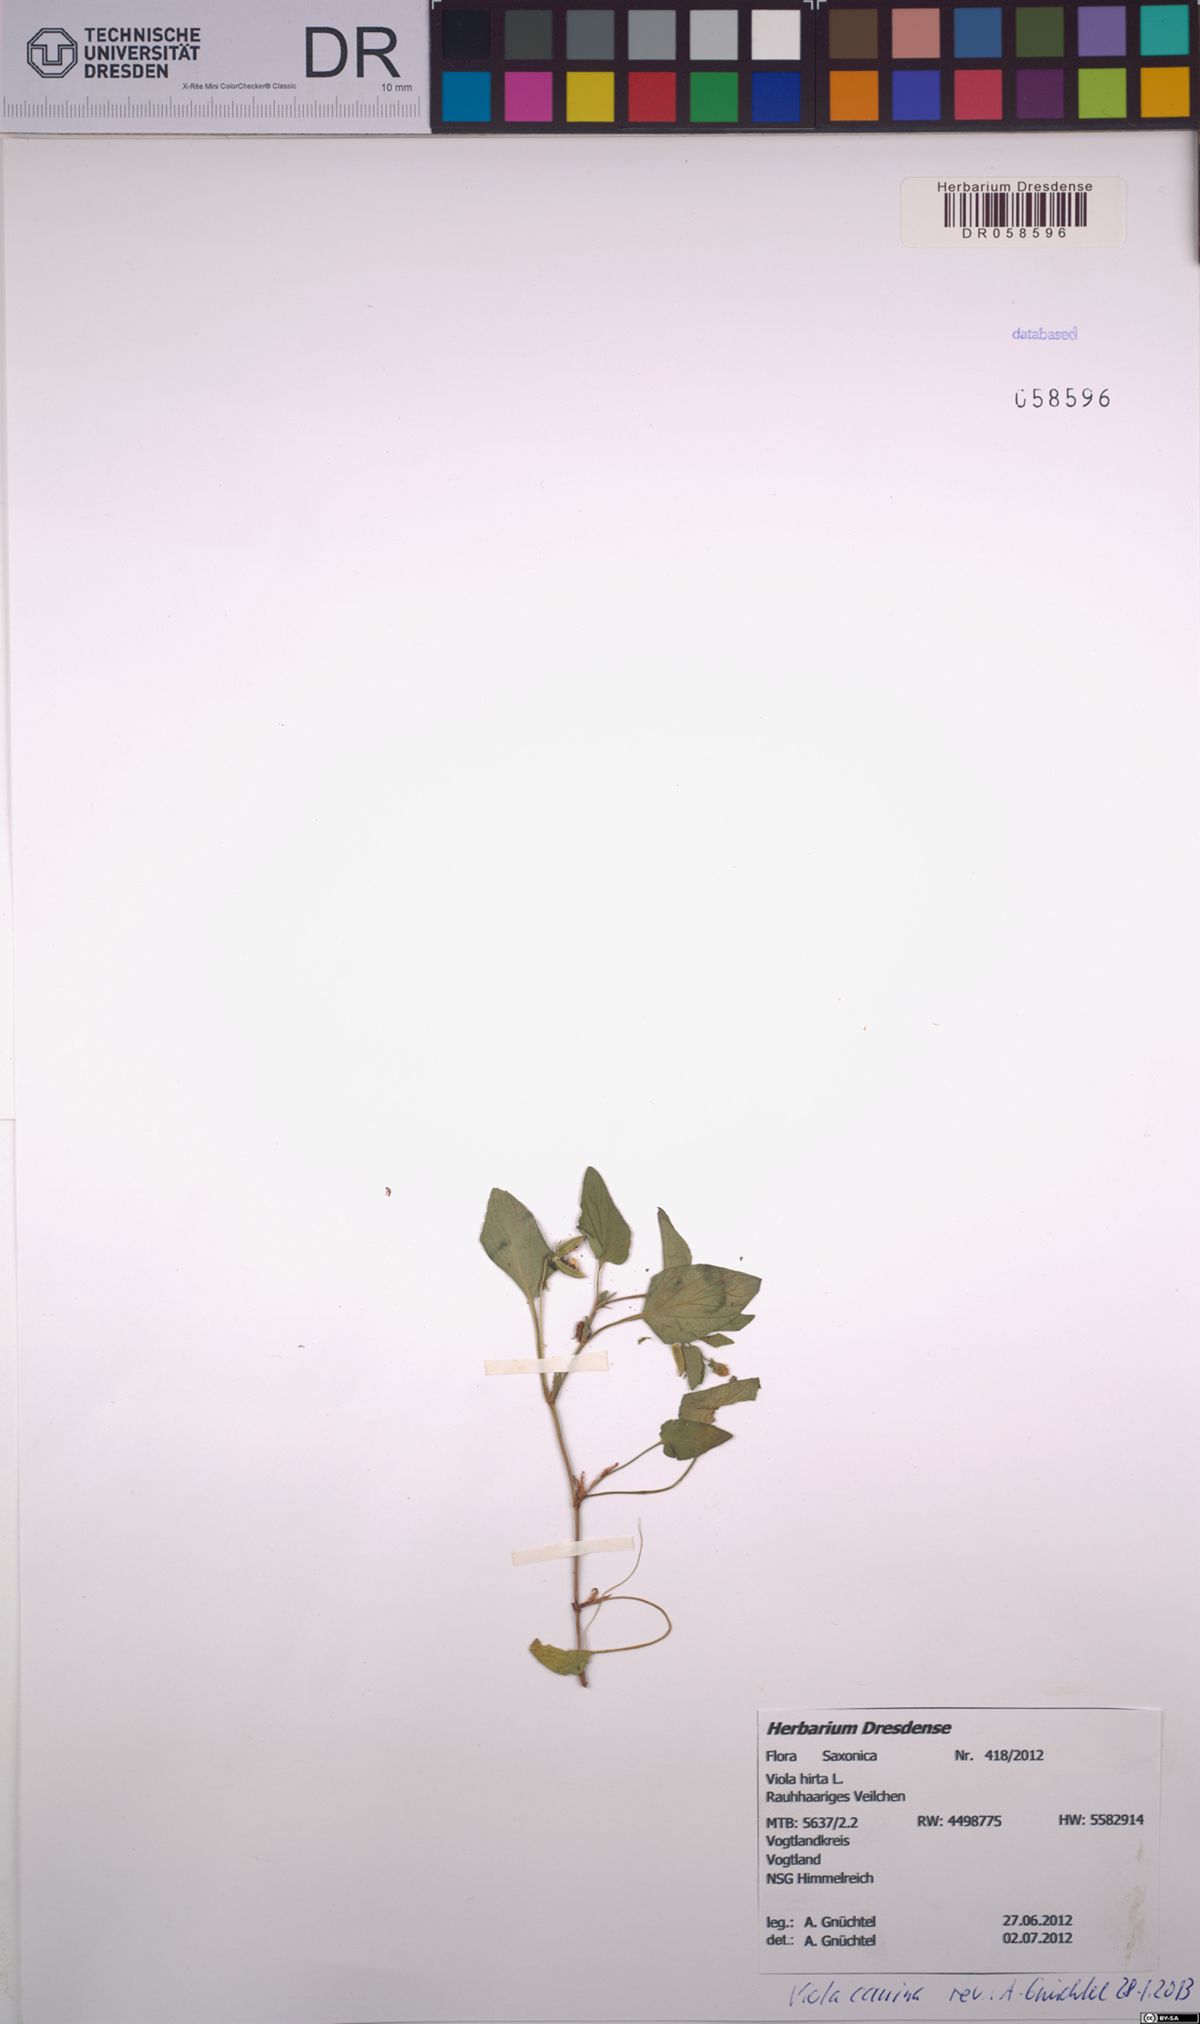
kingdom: Plantae
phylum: Tracheophyta
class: Magnoliopsida
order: Malpighiales
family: Violaceae
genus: Viola
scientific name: Viola canina
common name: Heath dog-violet
